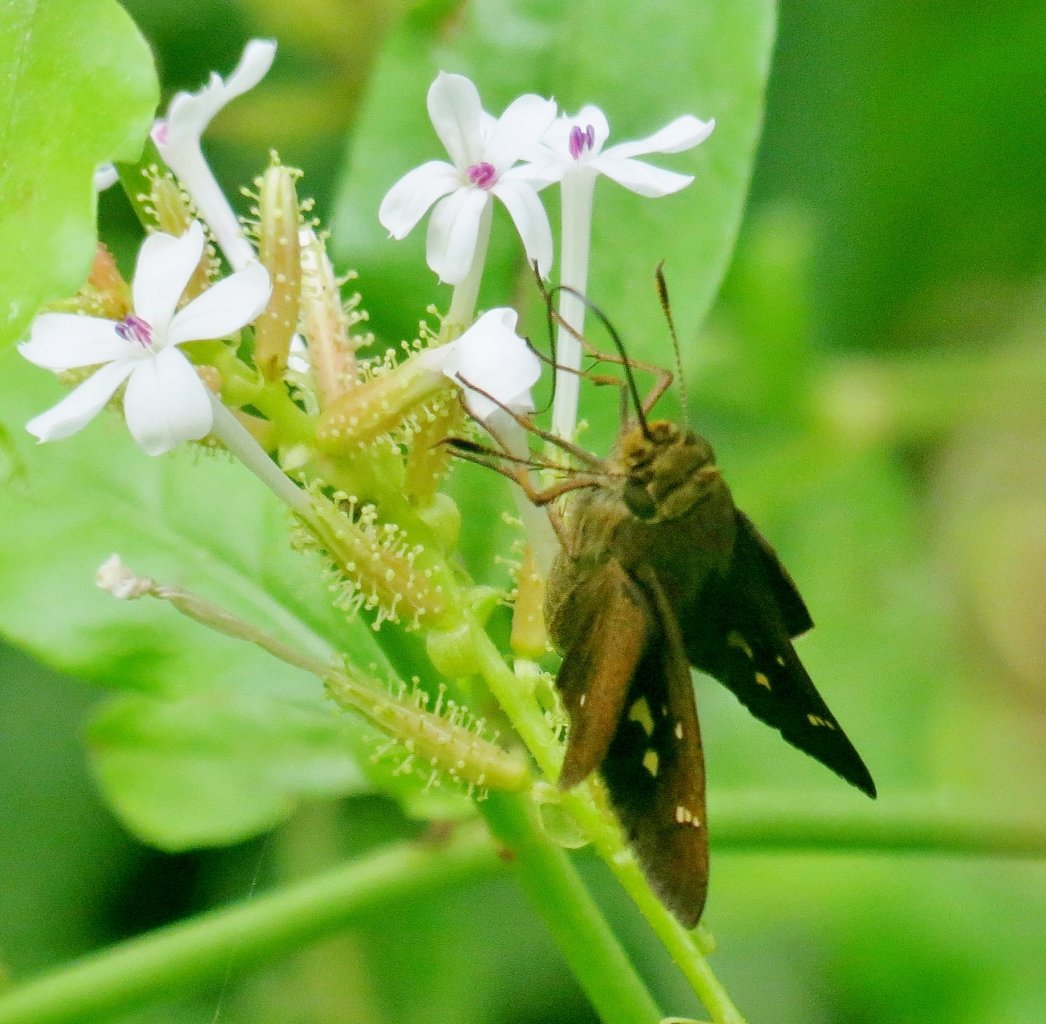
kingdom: Animalia
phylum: Arthropoda
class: Insecta
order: Lepidoptera
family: Hesperiidae
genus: Decinea
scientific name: Decinea percosius
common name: Double-dotted Skipper
